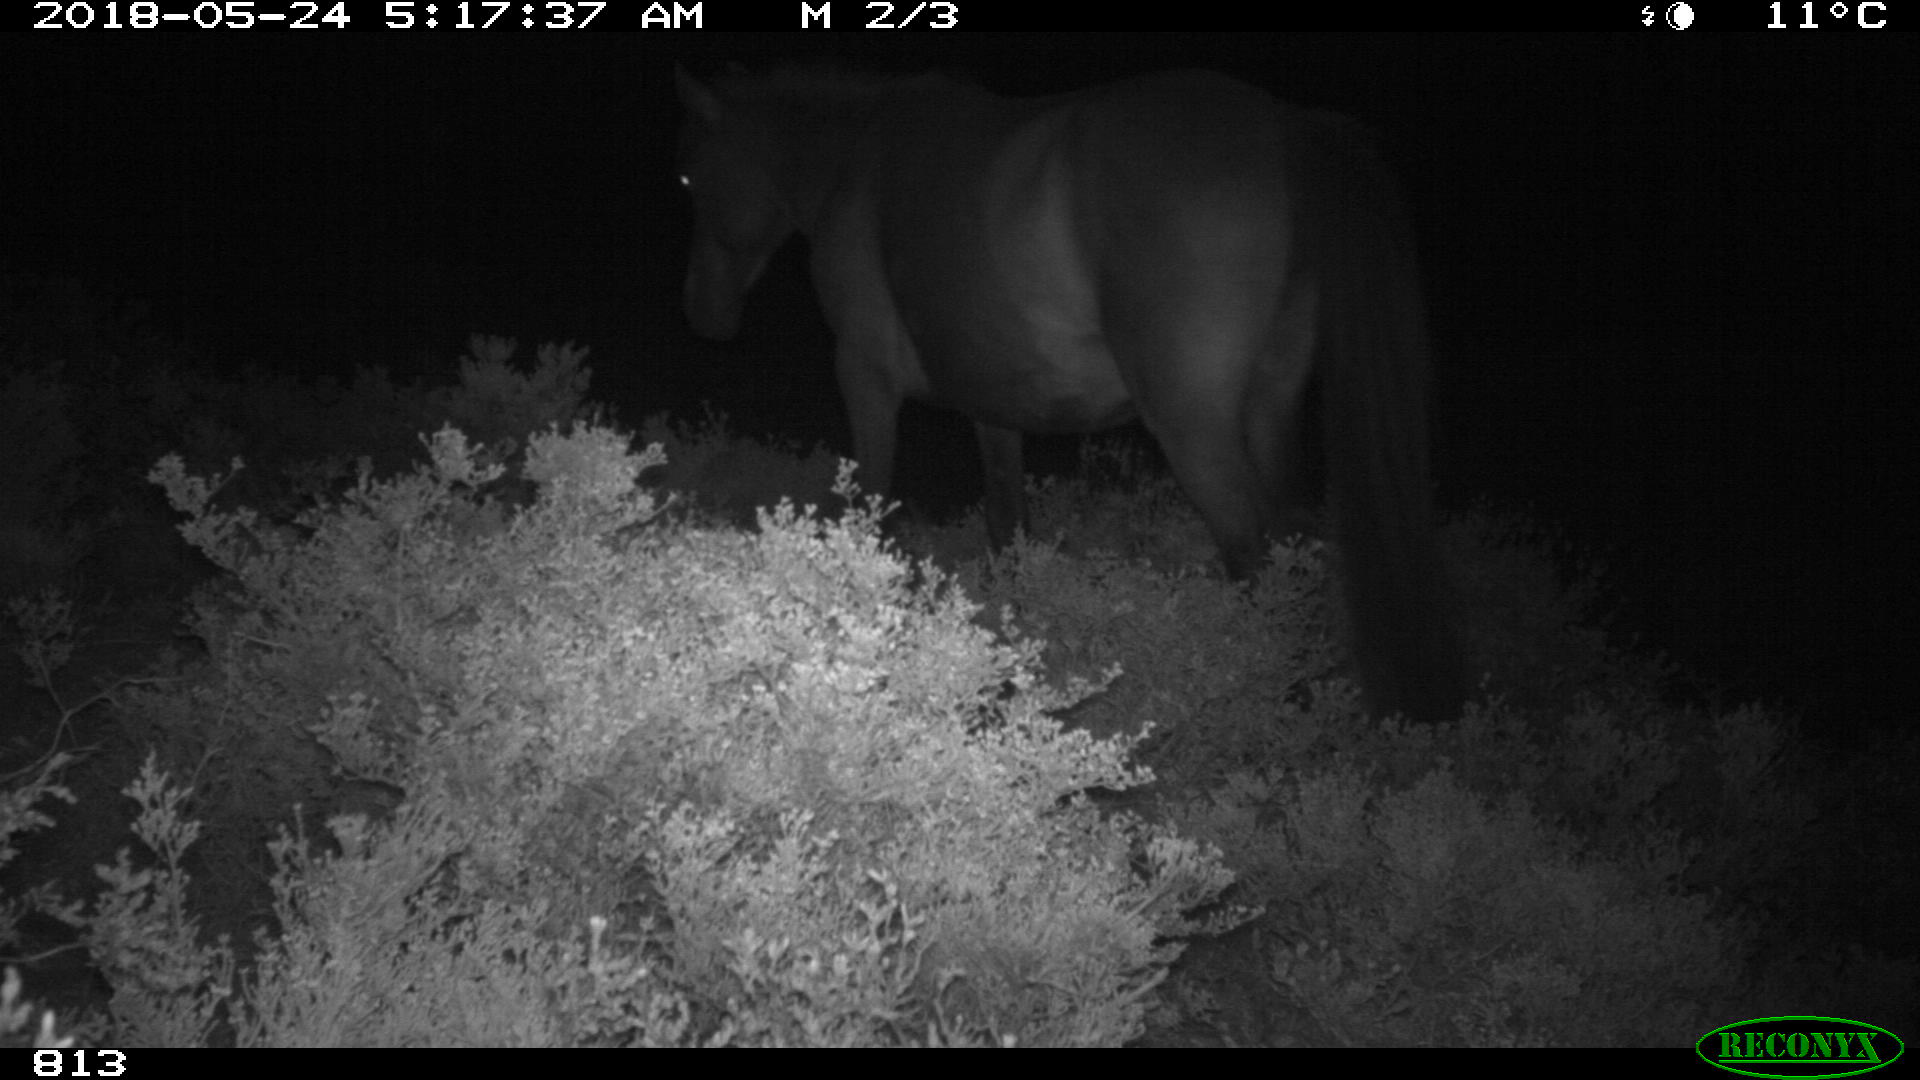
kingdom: Animalia
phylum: Chordata
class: Mammalia
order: Perissodactyla
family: Equidae
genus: Equus
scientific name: Equus caballus
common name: Horse
